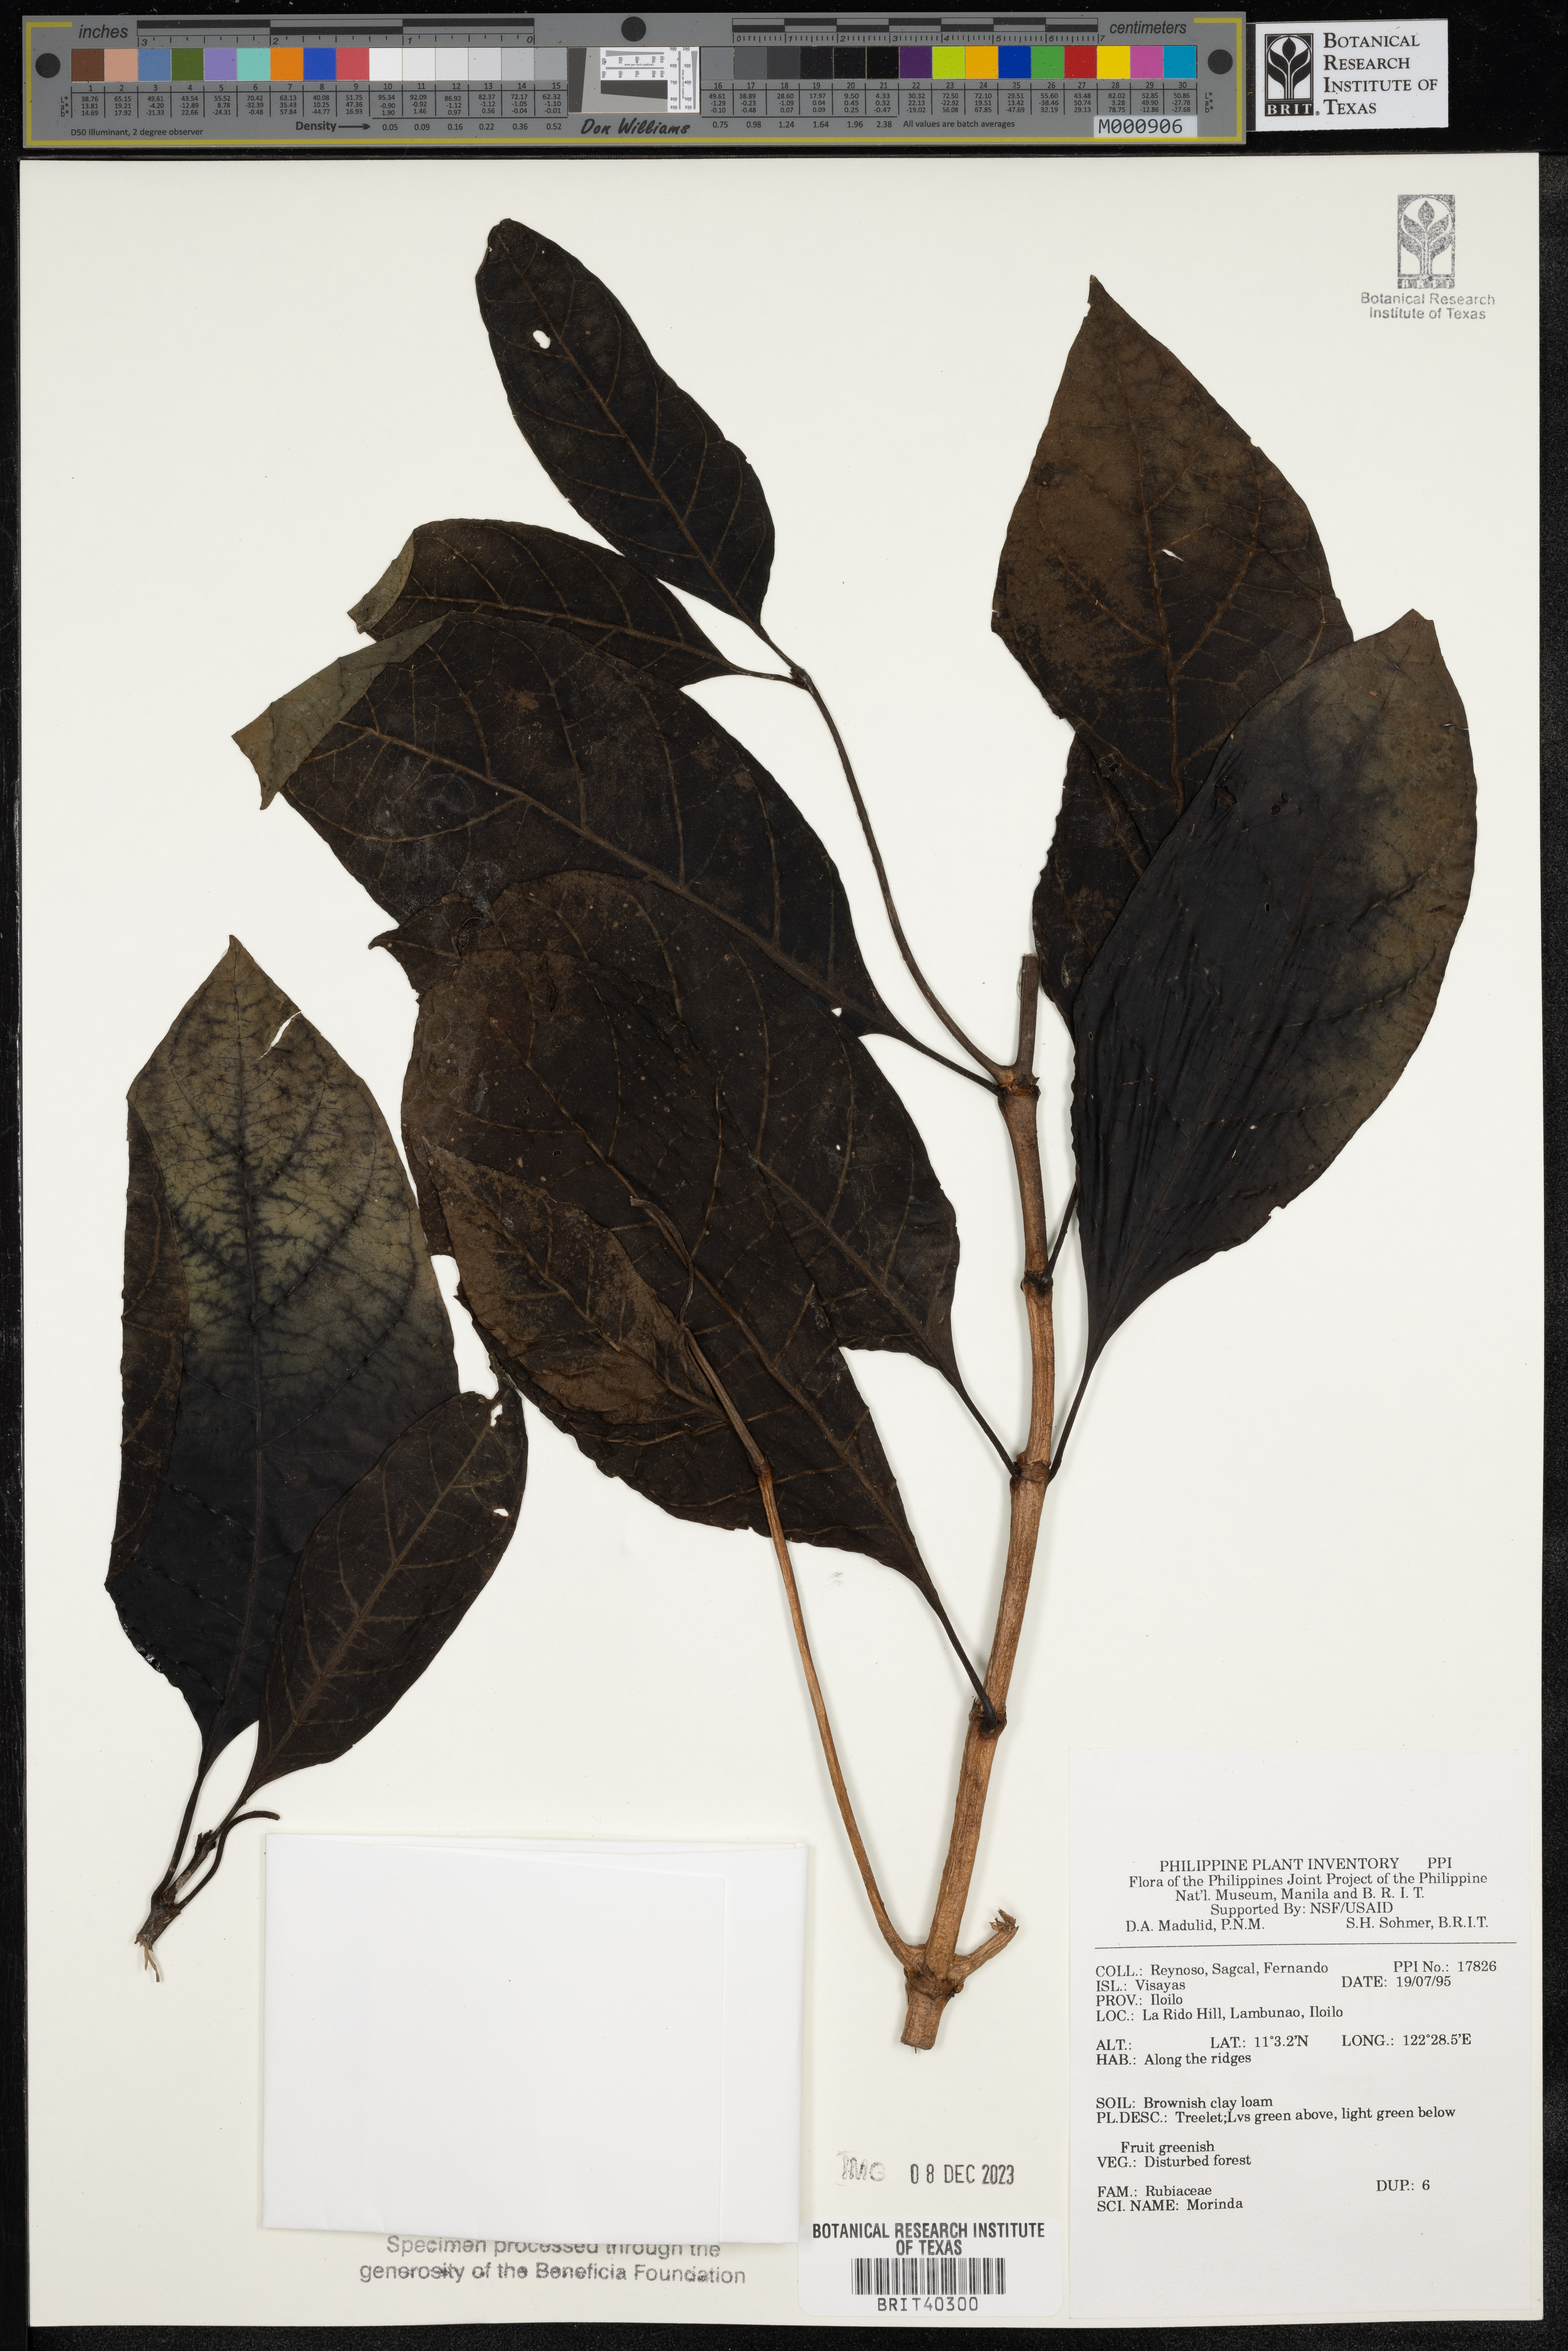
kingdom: Plantae
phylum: Tracheophyta
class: Magnoliopsida
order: Gentianales
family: Rubiaceae
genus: Morinda
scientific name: Morinda
